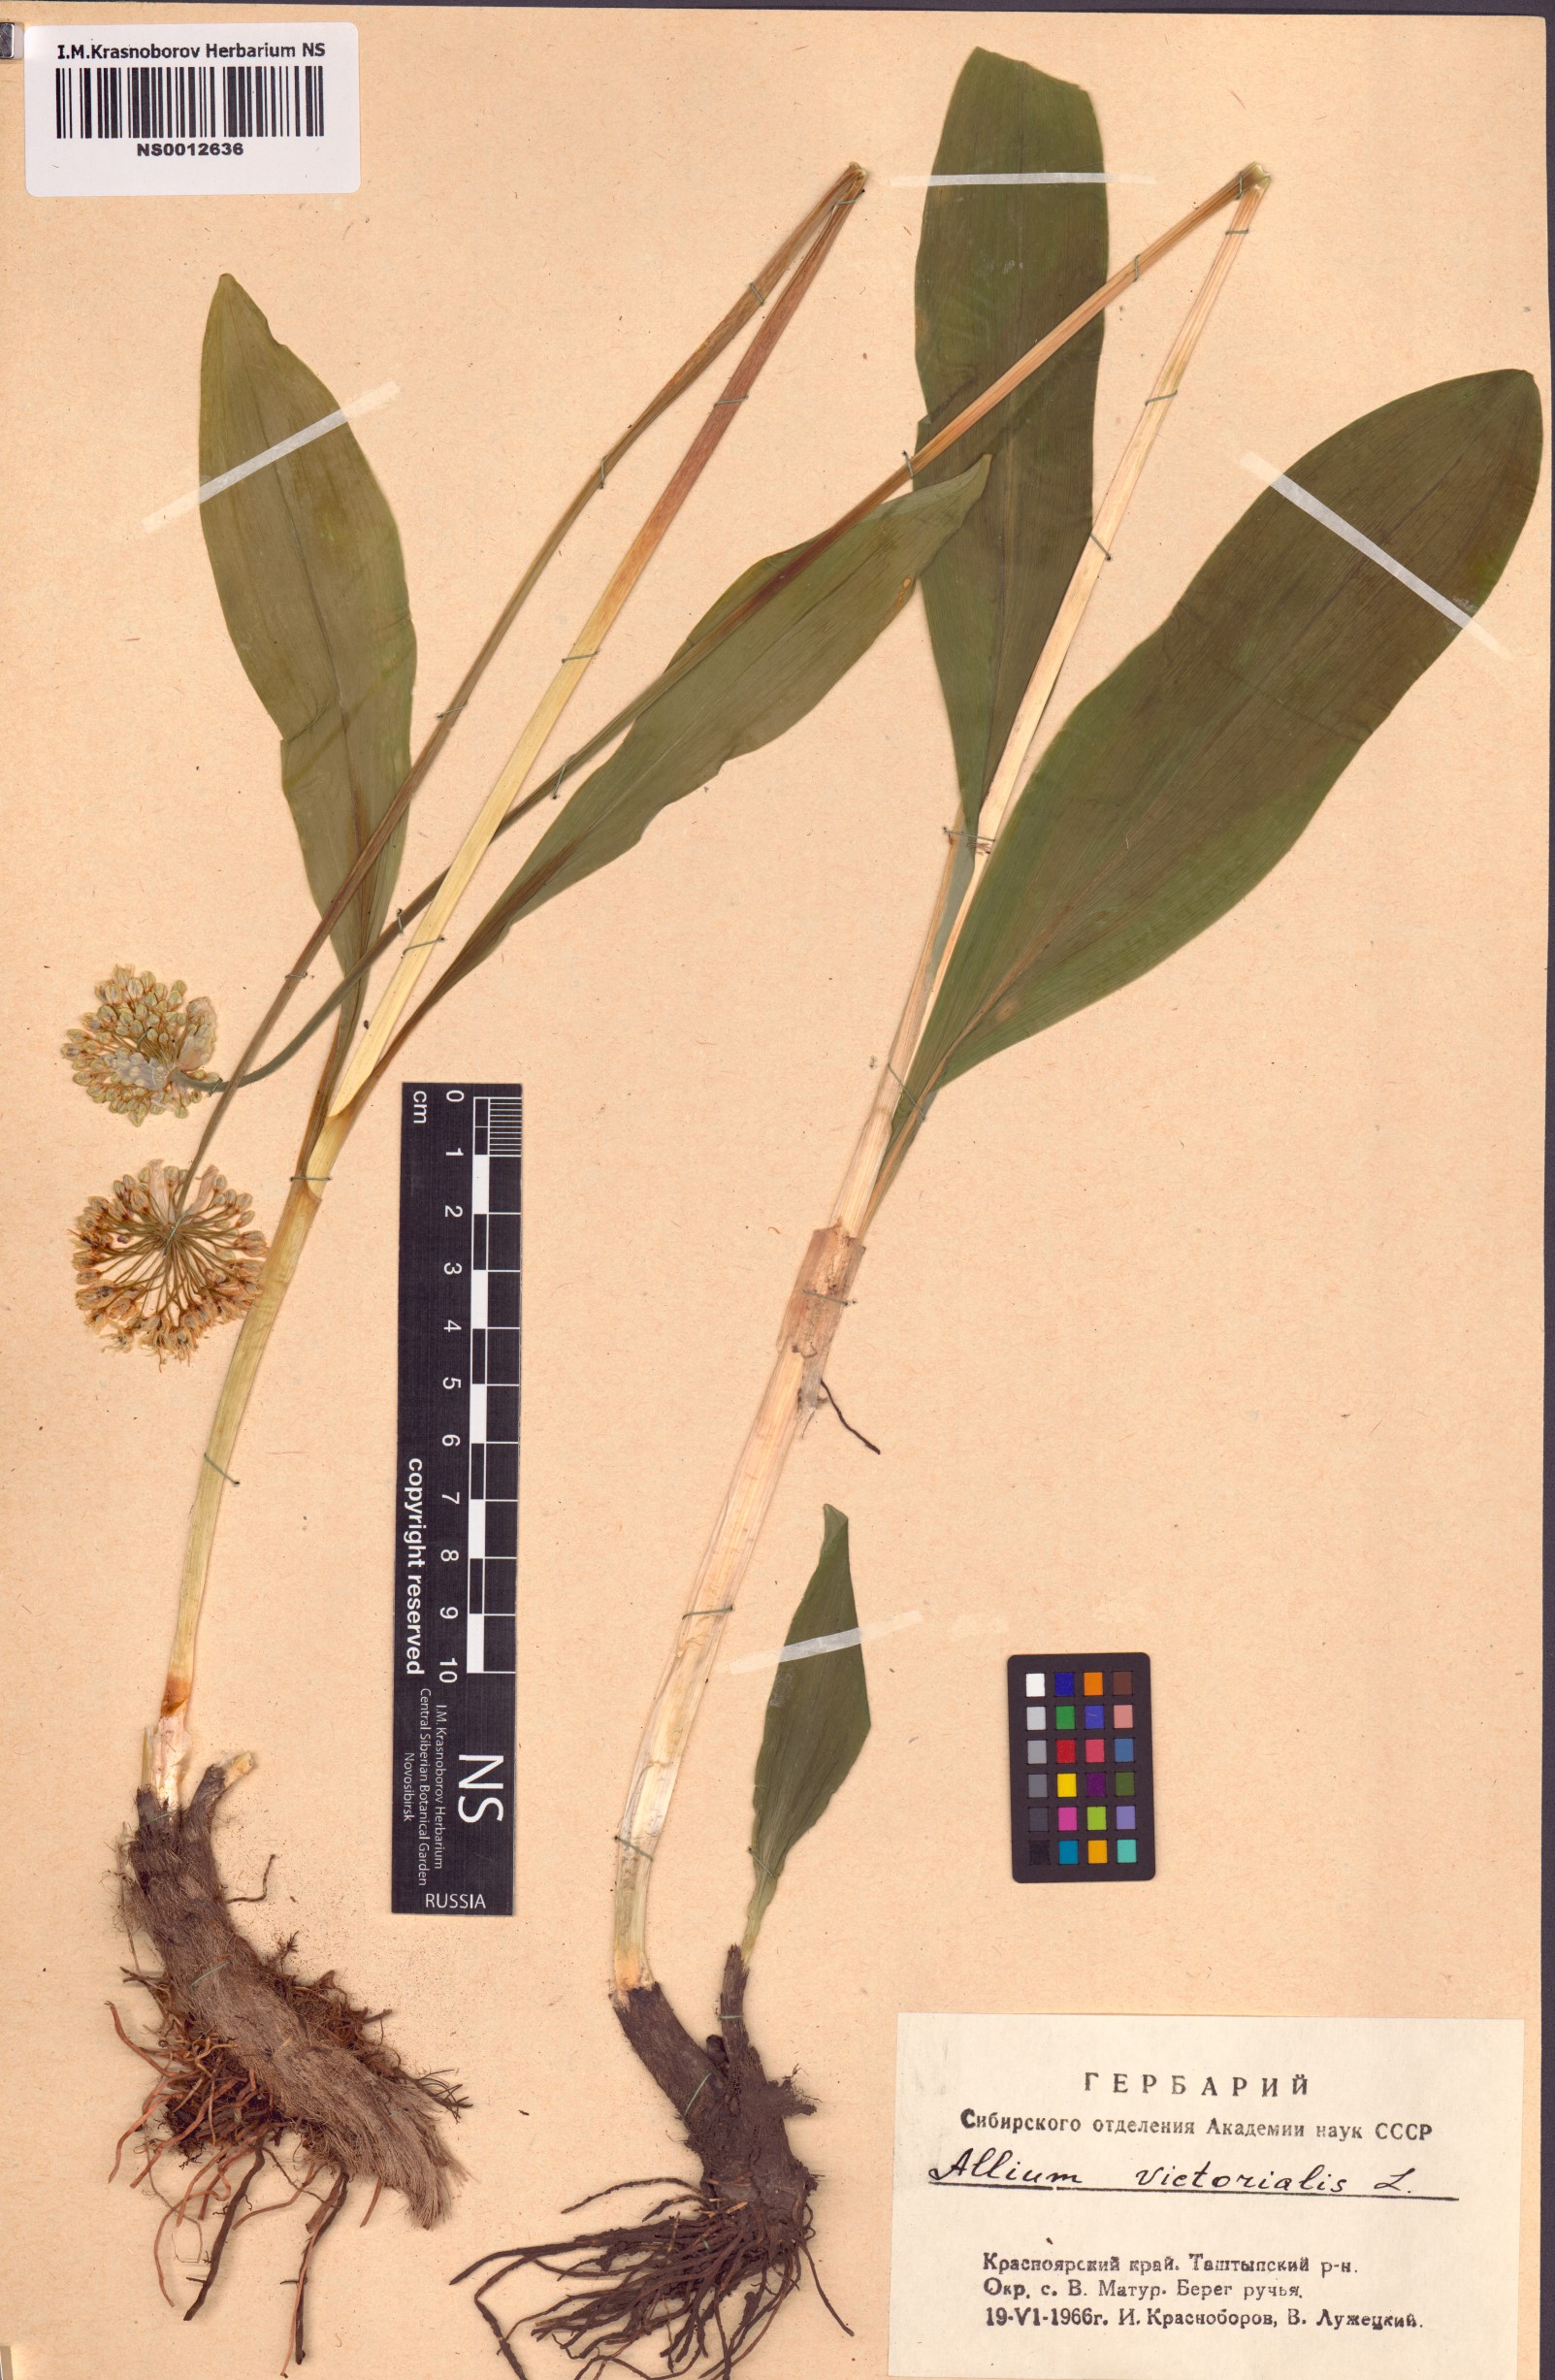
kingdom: Plantae
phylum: Tracheophyta
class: Liliopsida
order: Asparagales
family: Amaryllidaceae
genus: Allium
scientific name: Allium microdictyon
